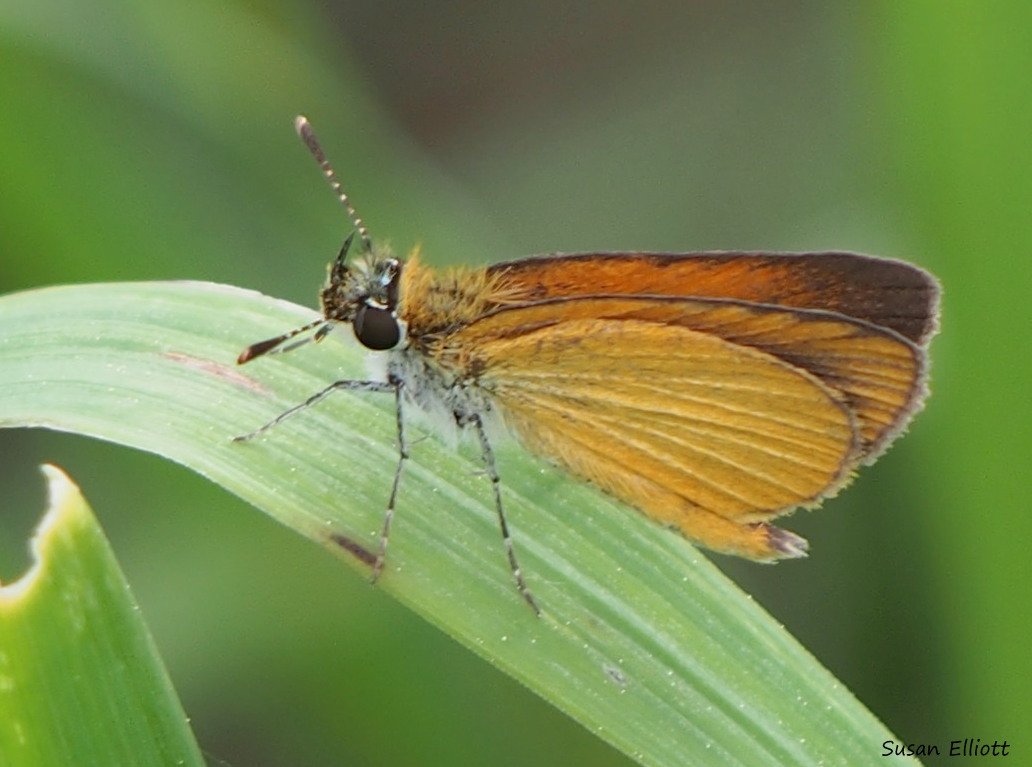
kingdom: Animalia
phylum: Arthropoda
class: Insecta
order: Lepidoptera
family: Hesperiidae
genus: Ancyloxypha
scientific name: Ancyloxypha numitor
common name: Least Skipper
